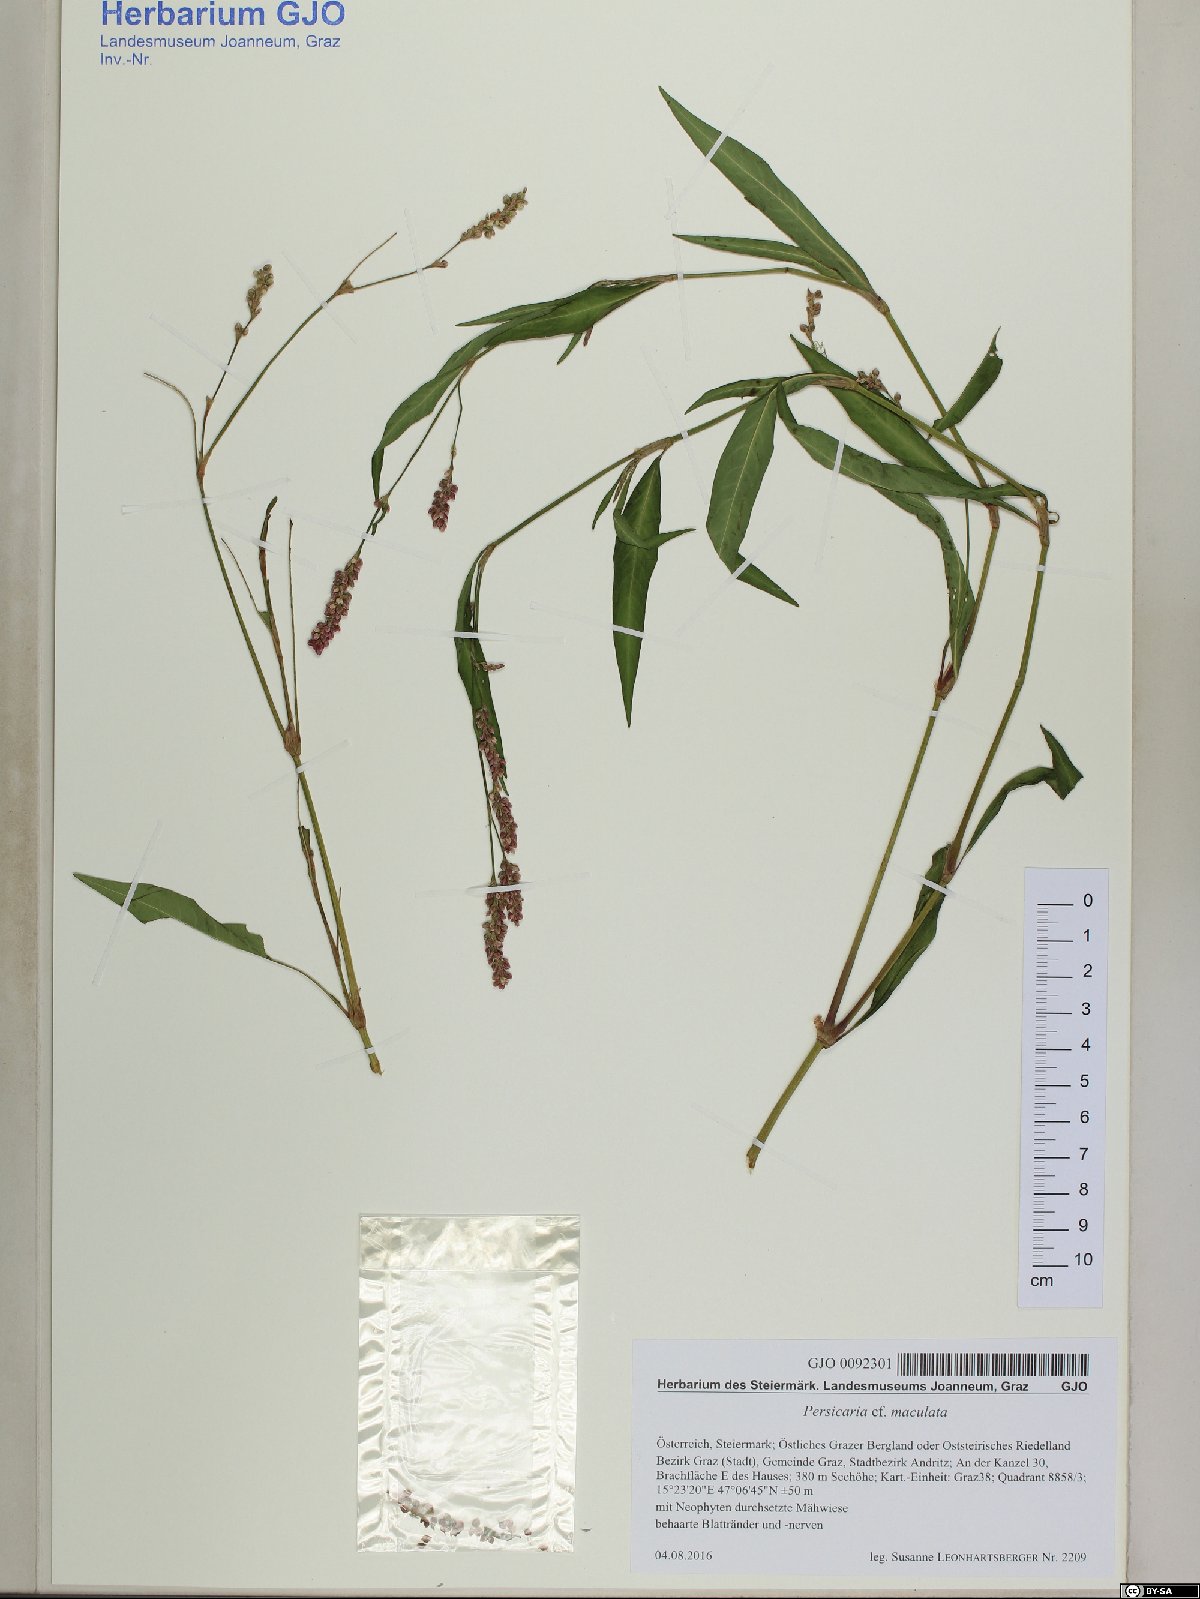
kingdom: Plantae
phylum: Tracheophyta
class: Magnoliopsida
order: Caryophyllales
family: Polygonaceae
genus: Persicaria
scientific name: Persicaria maculosa
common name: Redshank
